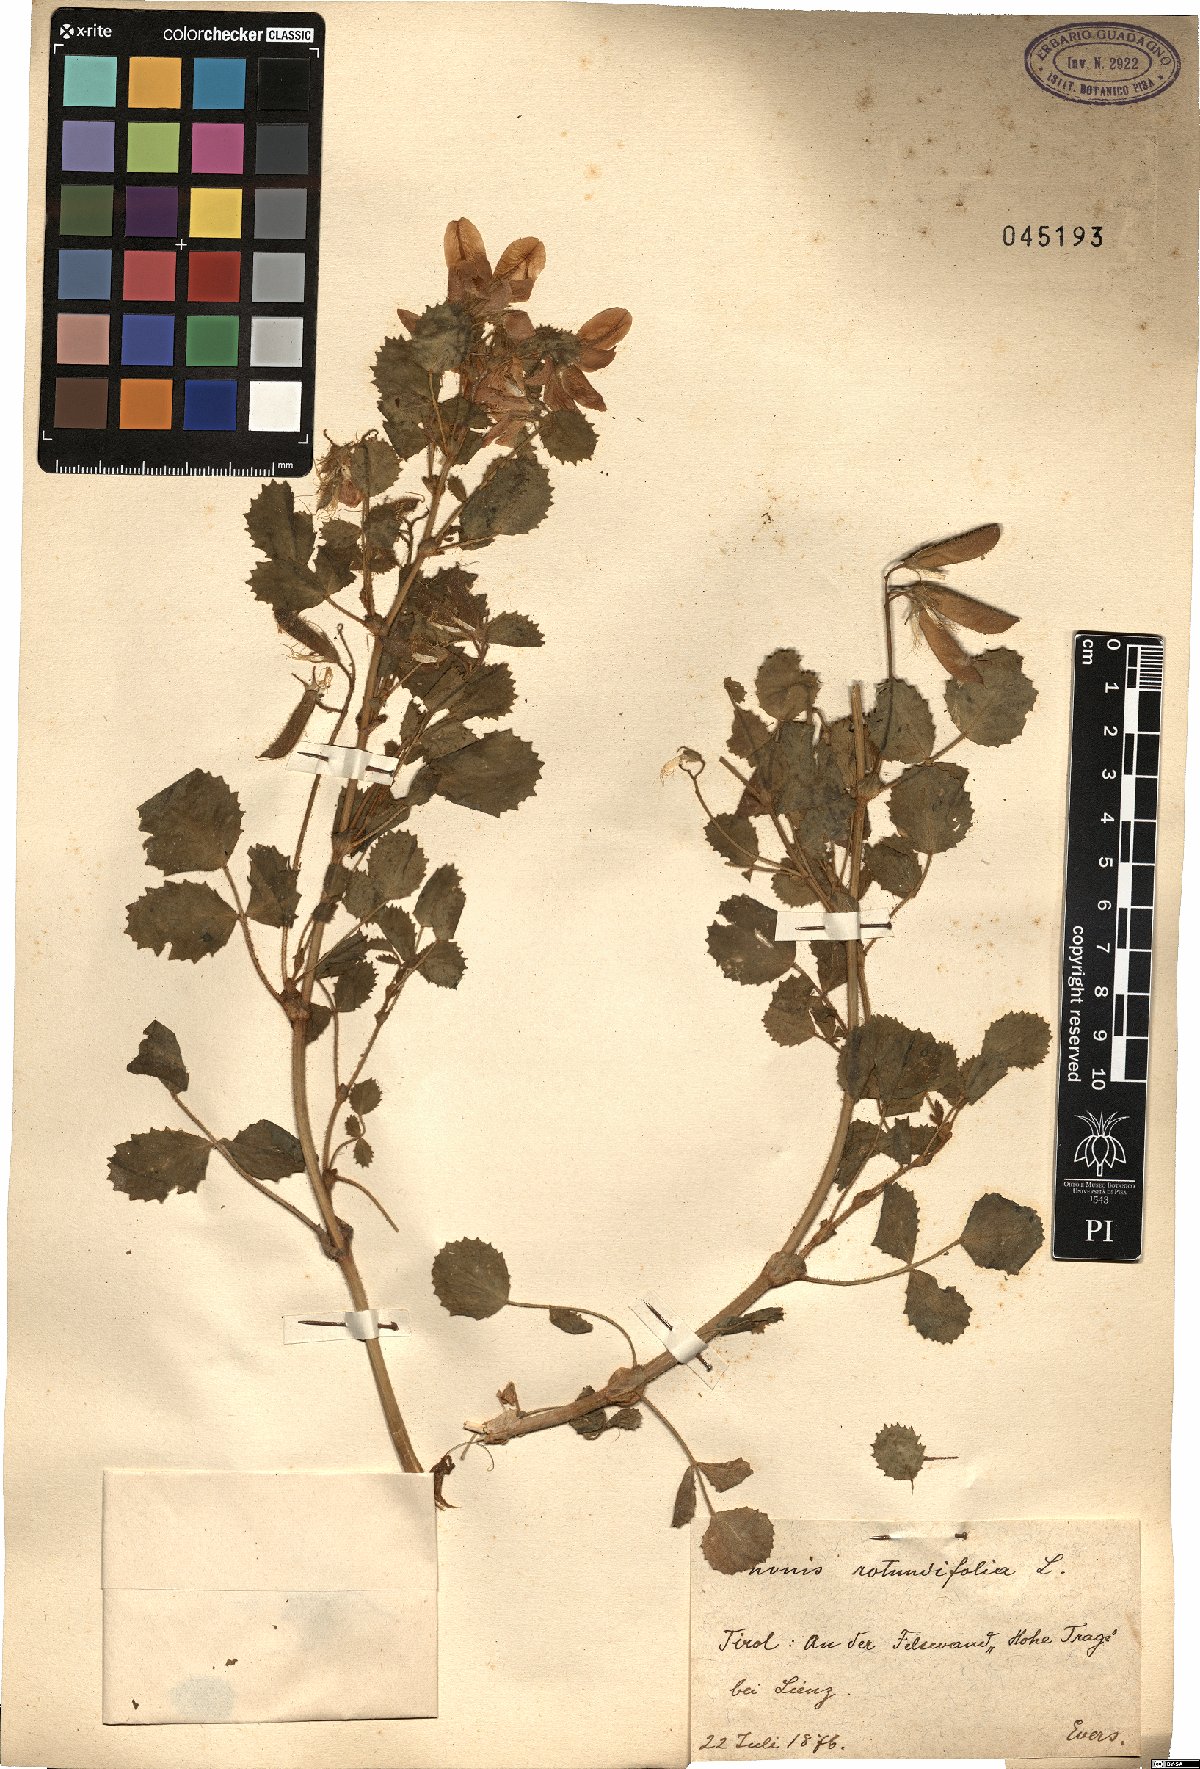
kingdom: Plantae
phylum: Tracheophyta
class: Magnoliopsida
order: Fabales
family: Fabaceae
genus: Ononis
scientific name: Ononis rotundifolia
